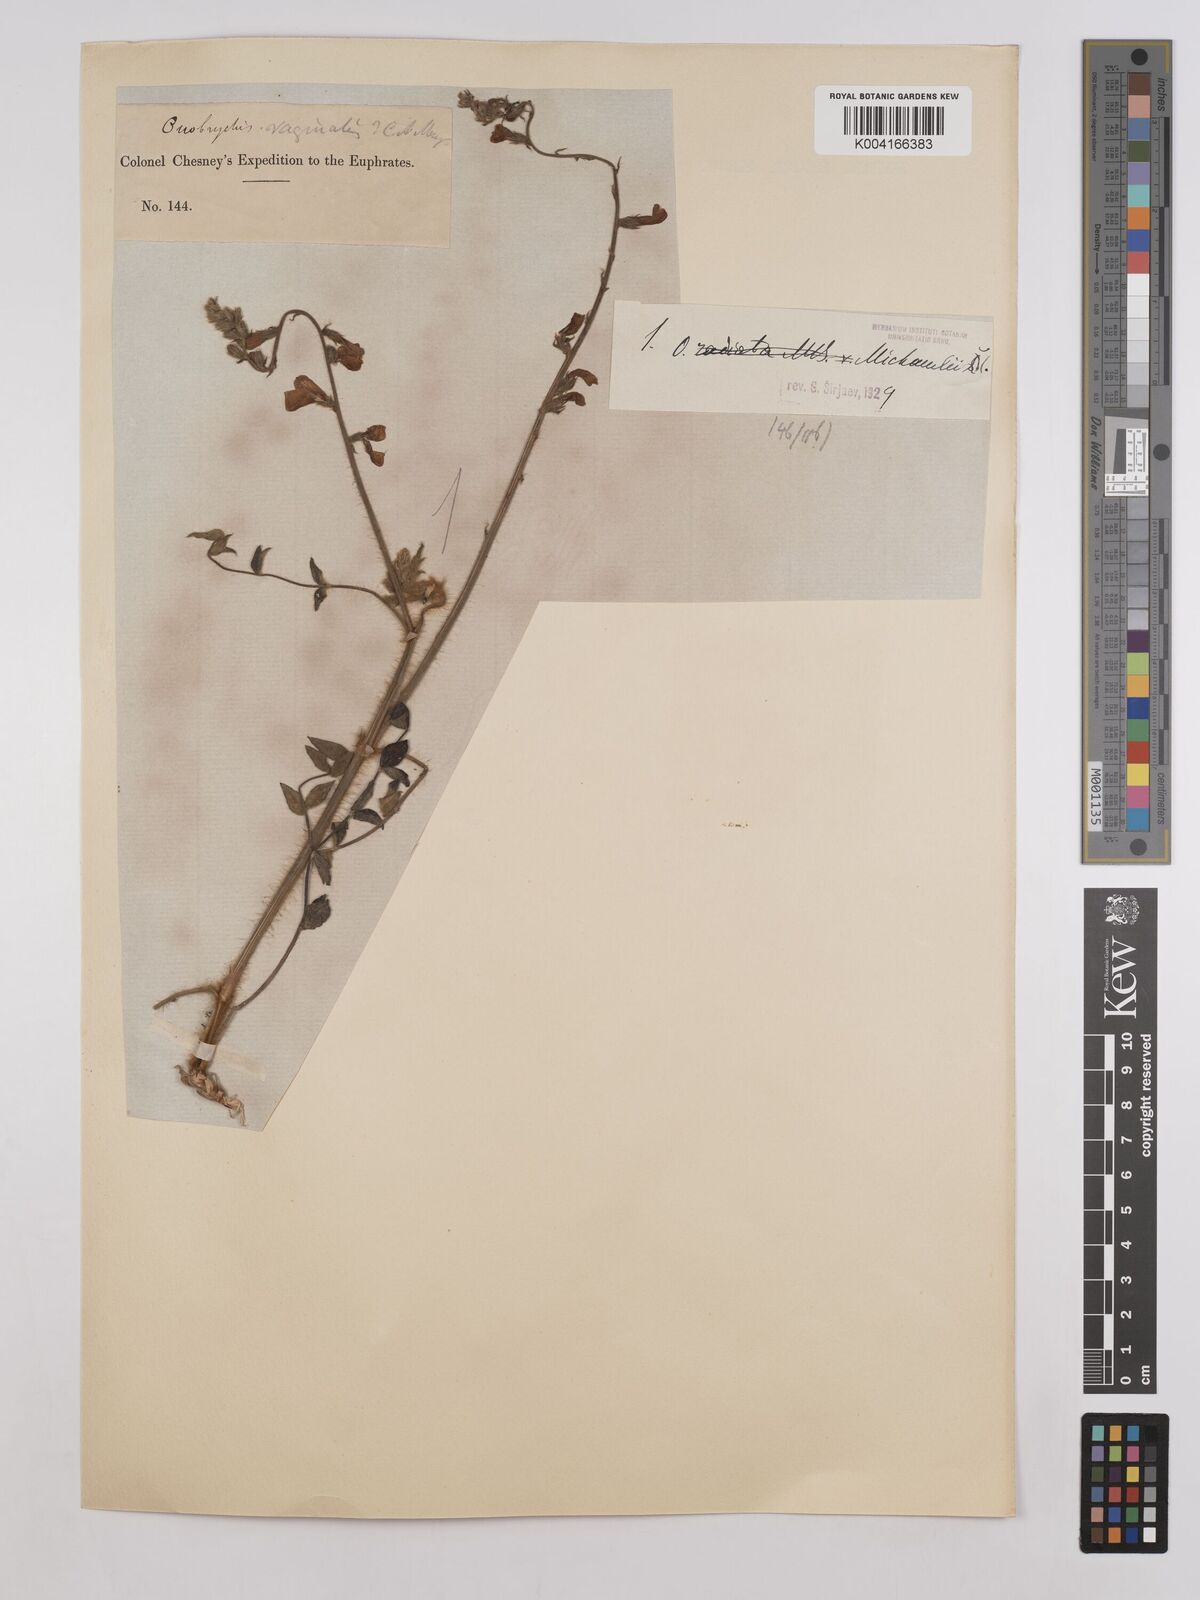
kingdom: Plantae
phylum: Tracheophyta
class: Magnoliopsida
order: Fabales
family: Fabaceae
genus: Onobrychis
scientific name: Onobrychis michauxii
